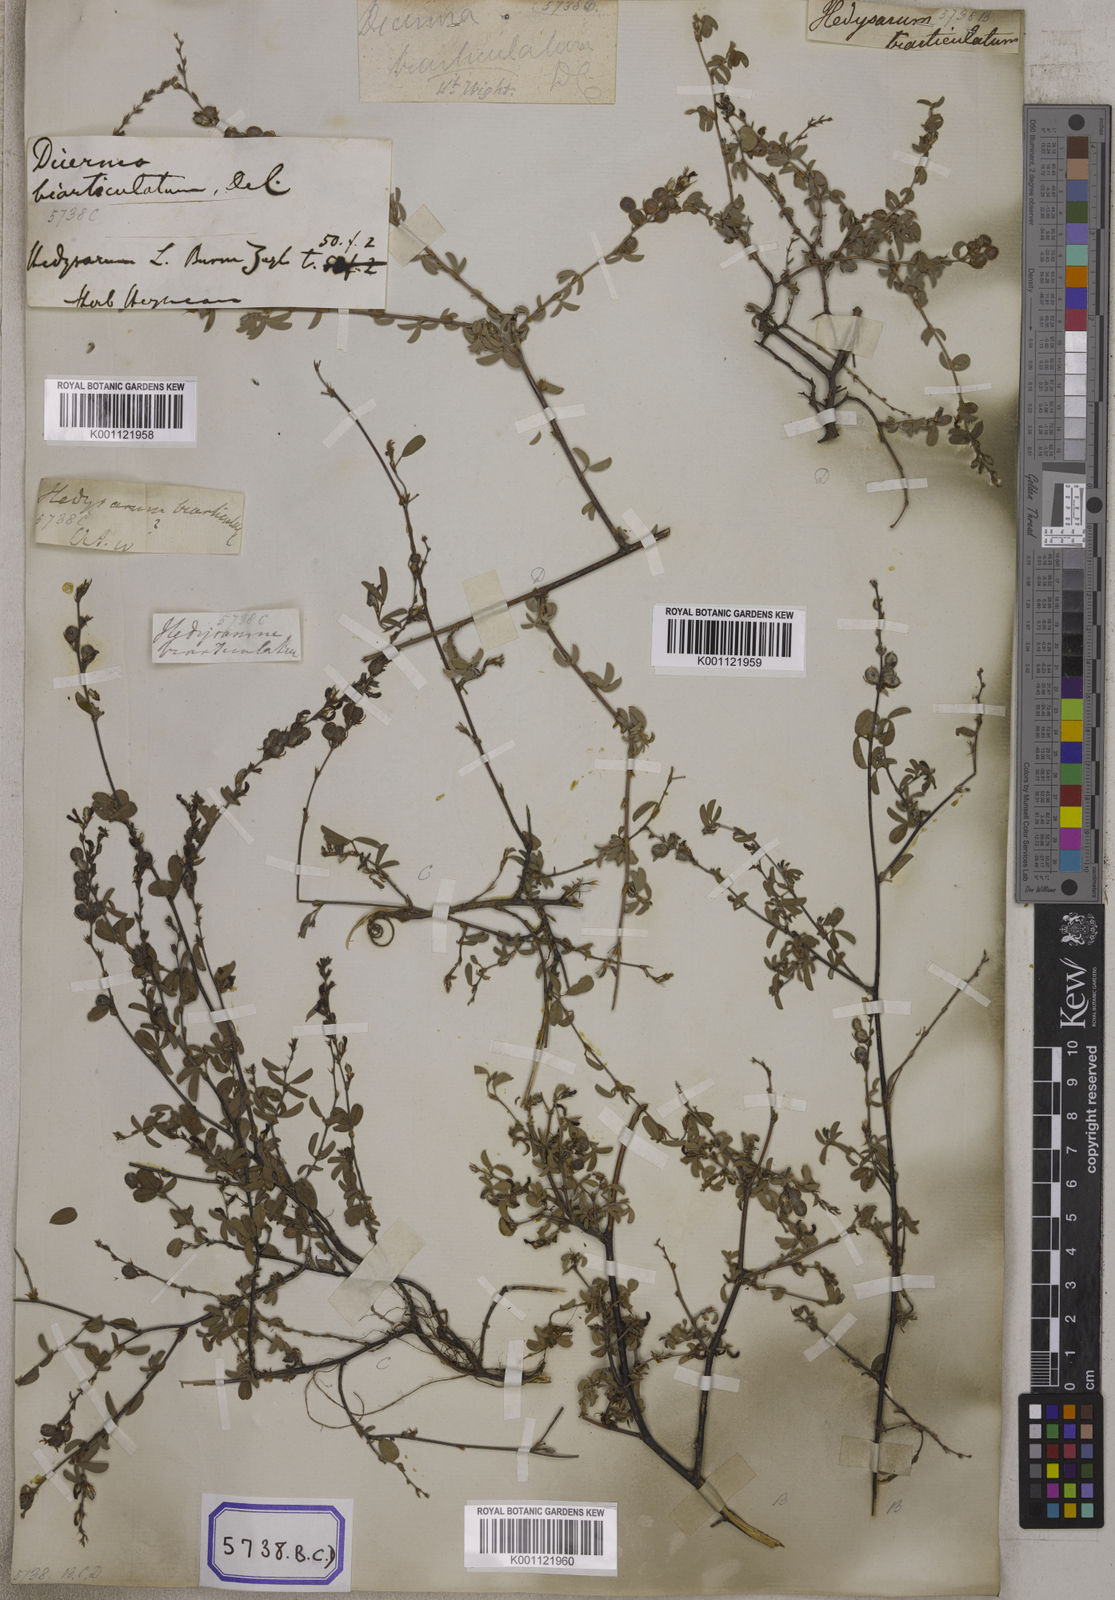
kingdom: Plantae
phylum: Tracheophyta
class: Magnoliopsida
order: Fabales
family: Fabaceae
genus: Aphyllodium
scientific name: Aphyllodium biarticulatum
